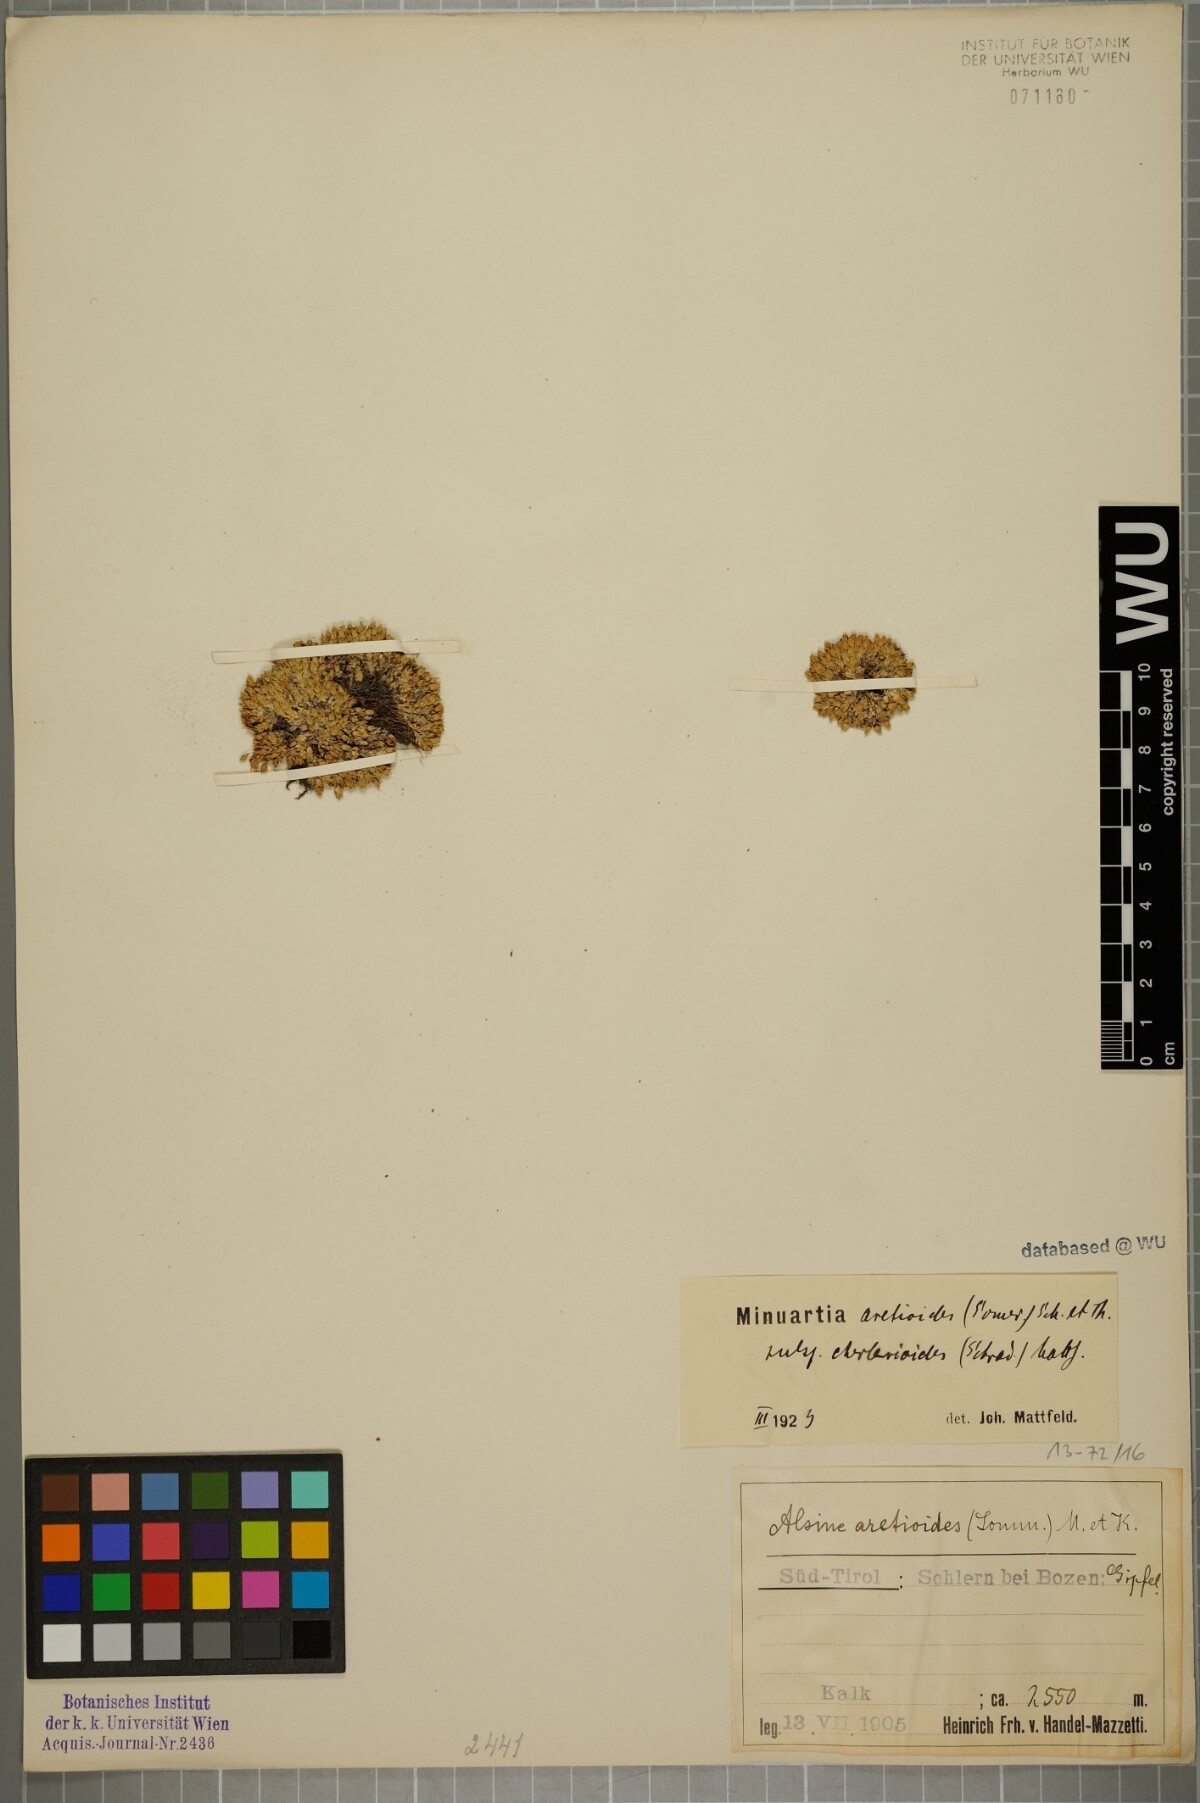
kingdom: Plantae
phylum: Tracheophyta
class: Magnoliopsida
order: Caryophyllales
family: Caryophyllaceae
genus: Facchinia
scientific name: Facchinia cherlerioides
